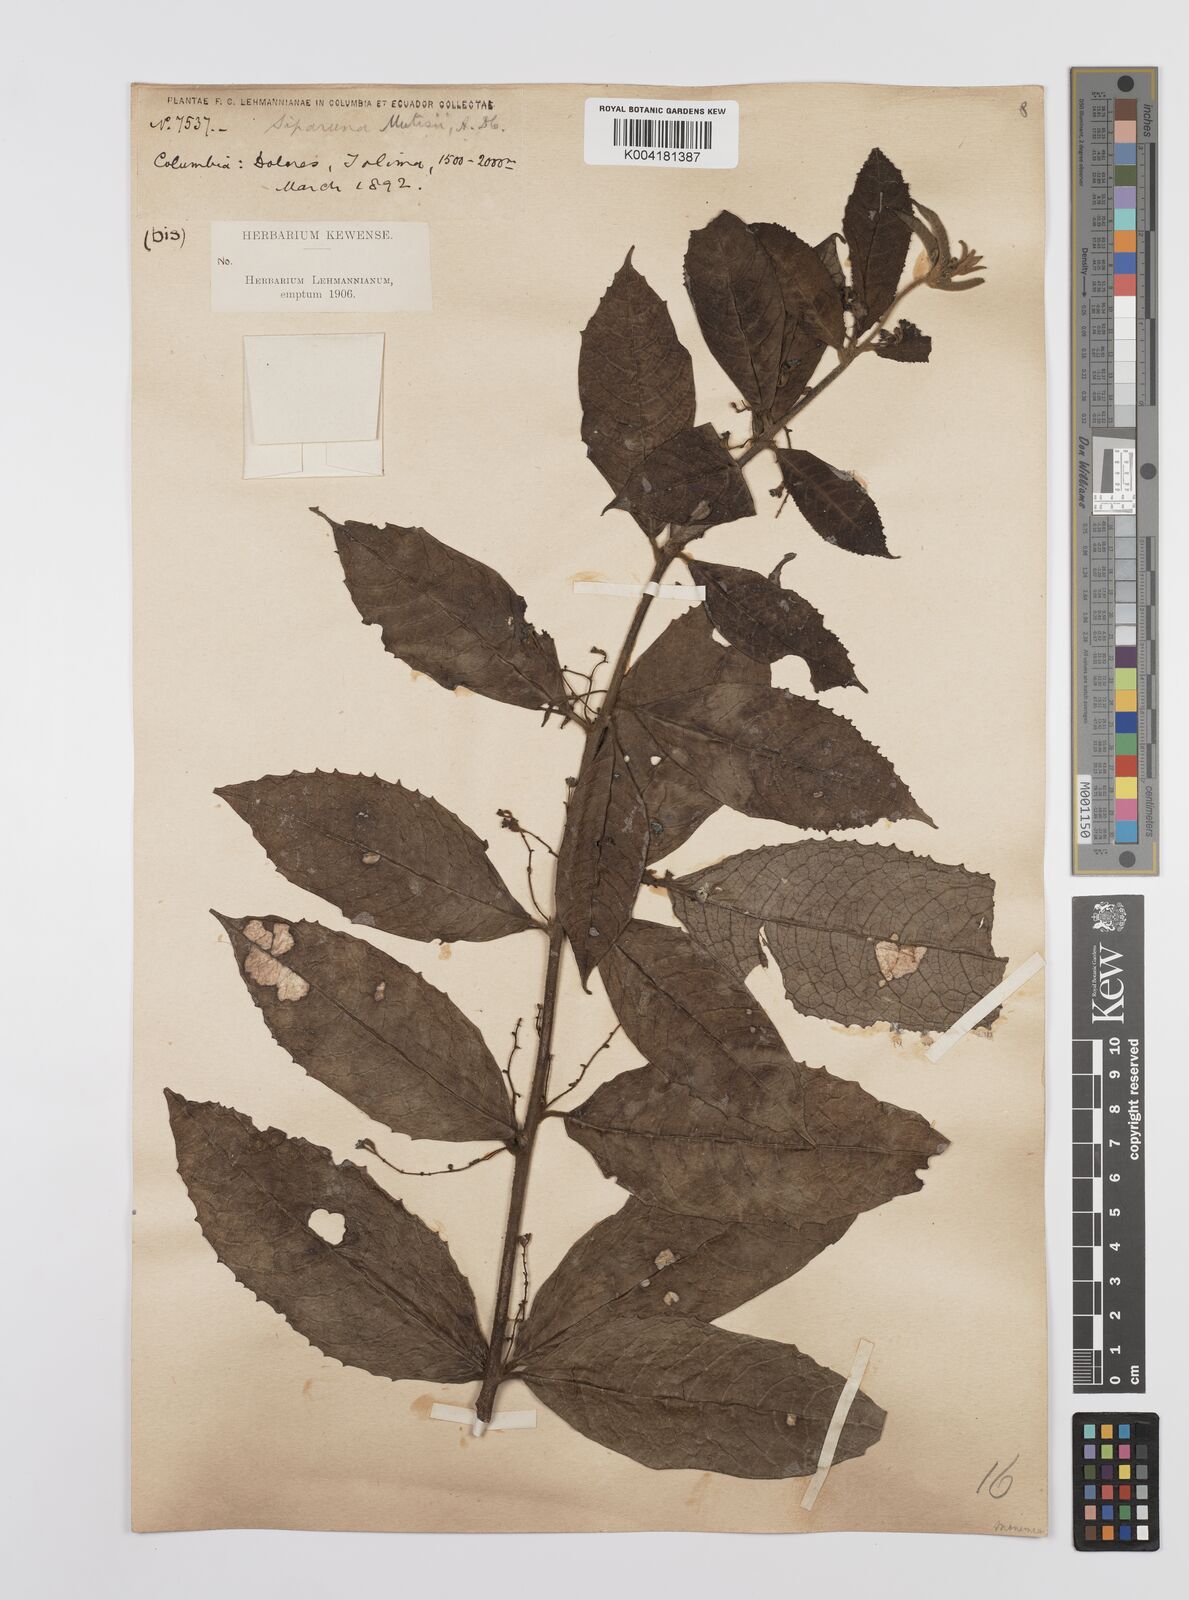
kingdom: Plantae
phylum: Tracheophyta
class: Magnoliopsida
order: Laurales
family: Siparunaceae
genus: Siparuna
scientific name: Siparuna mutisii
